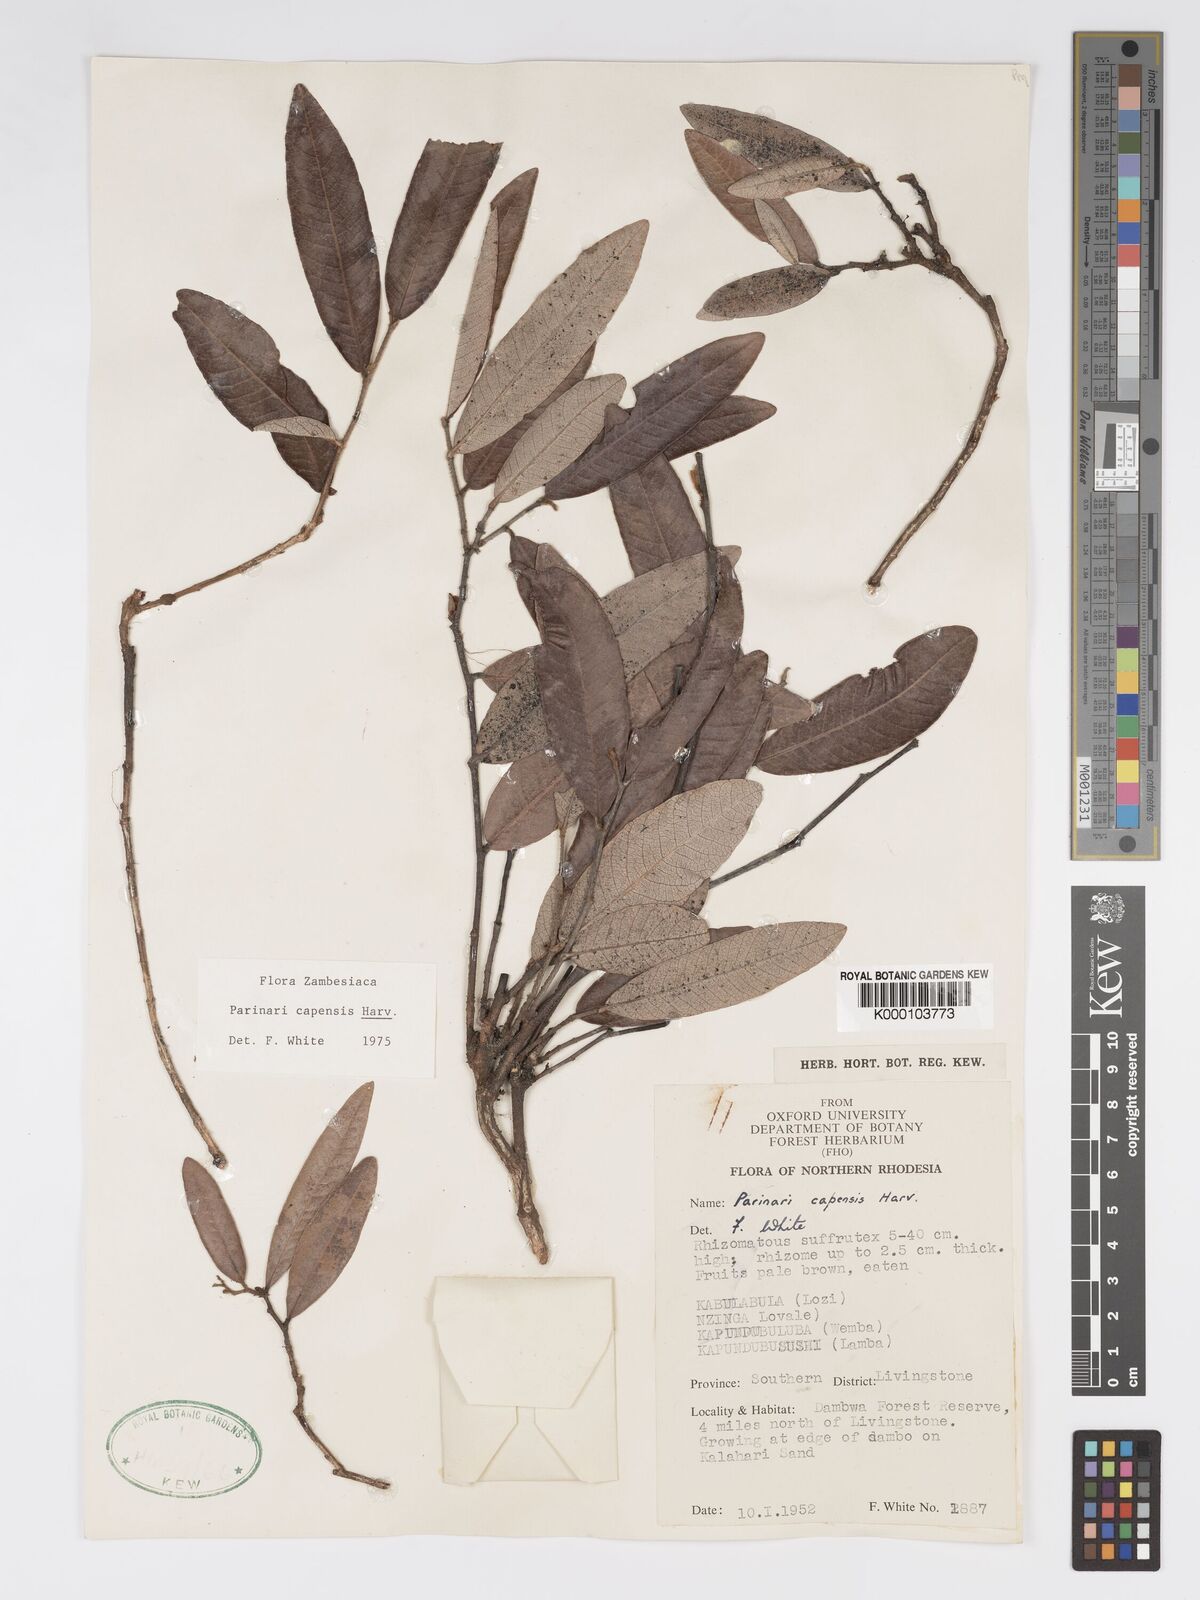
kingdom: Plantae
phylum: Tracheophyta
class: Magnoliopsida
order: Malpighiales
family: Chrysobalanaceae
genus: Parinari
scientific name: Parinari capensis
